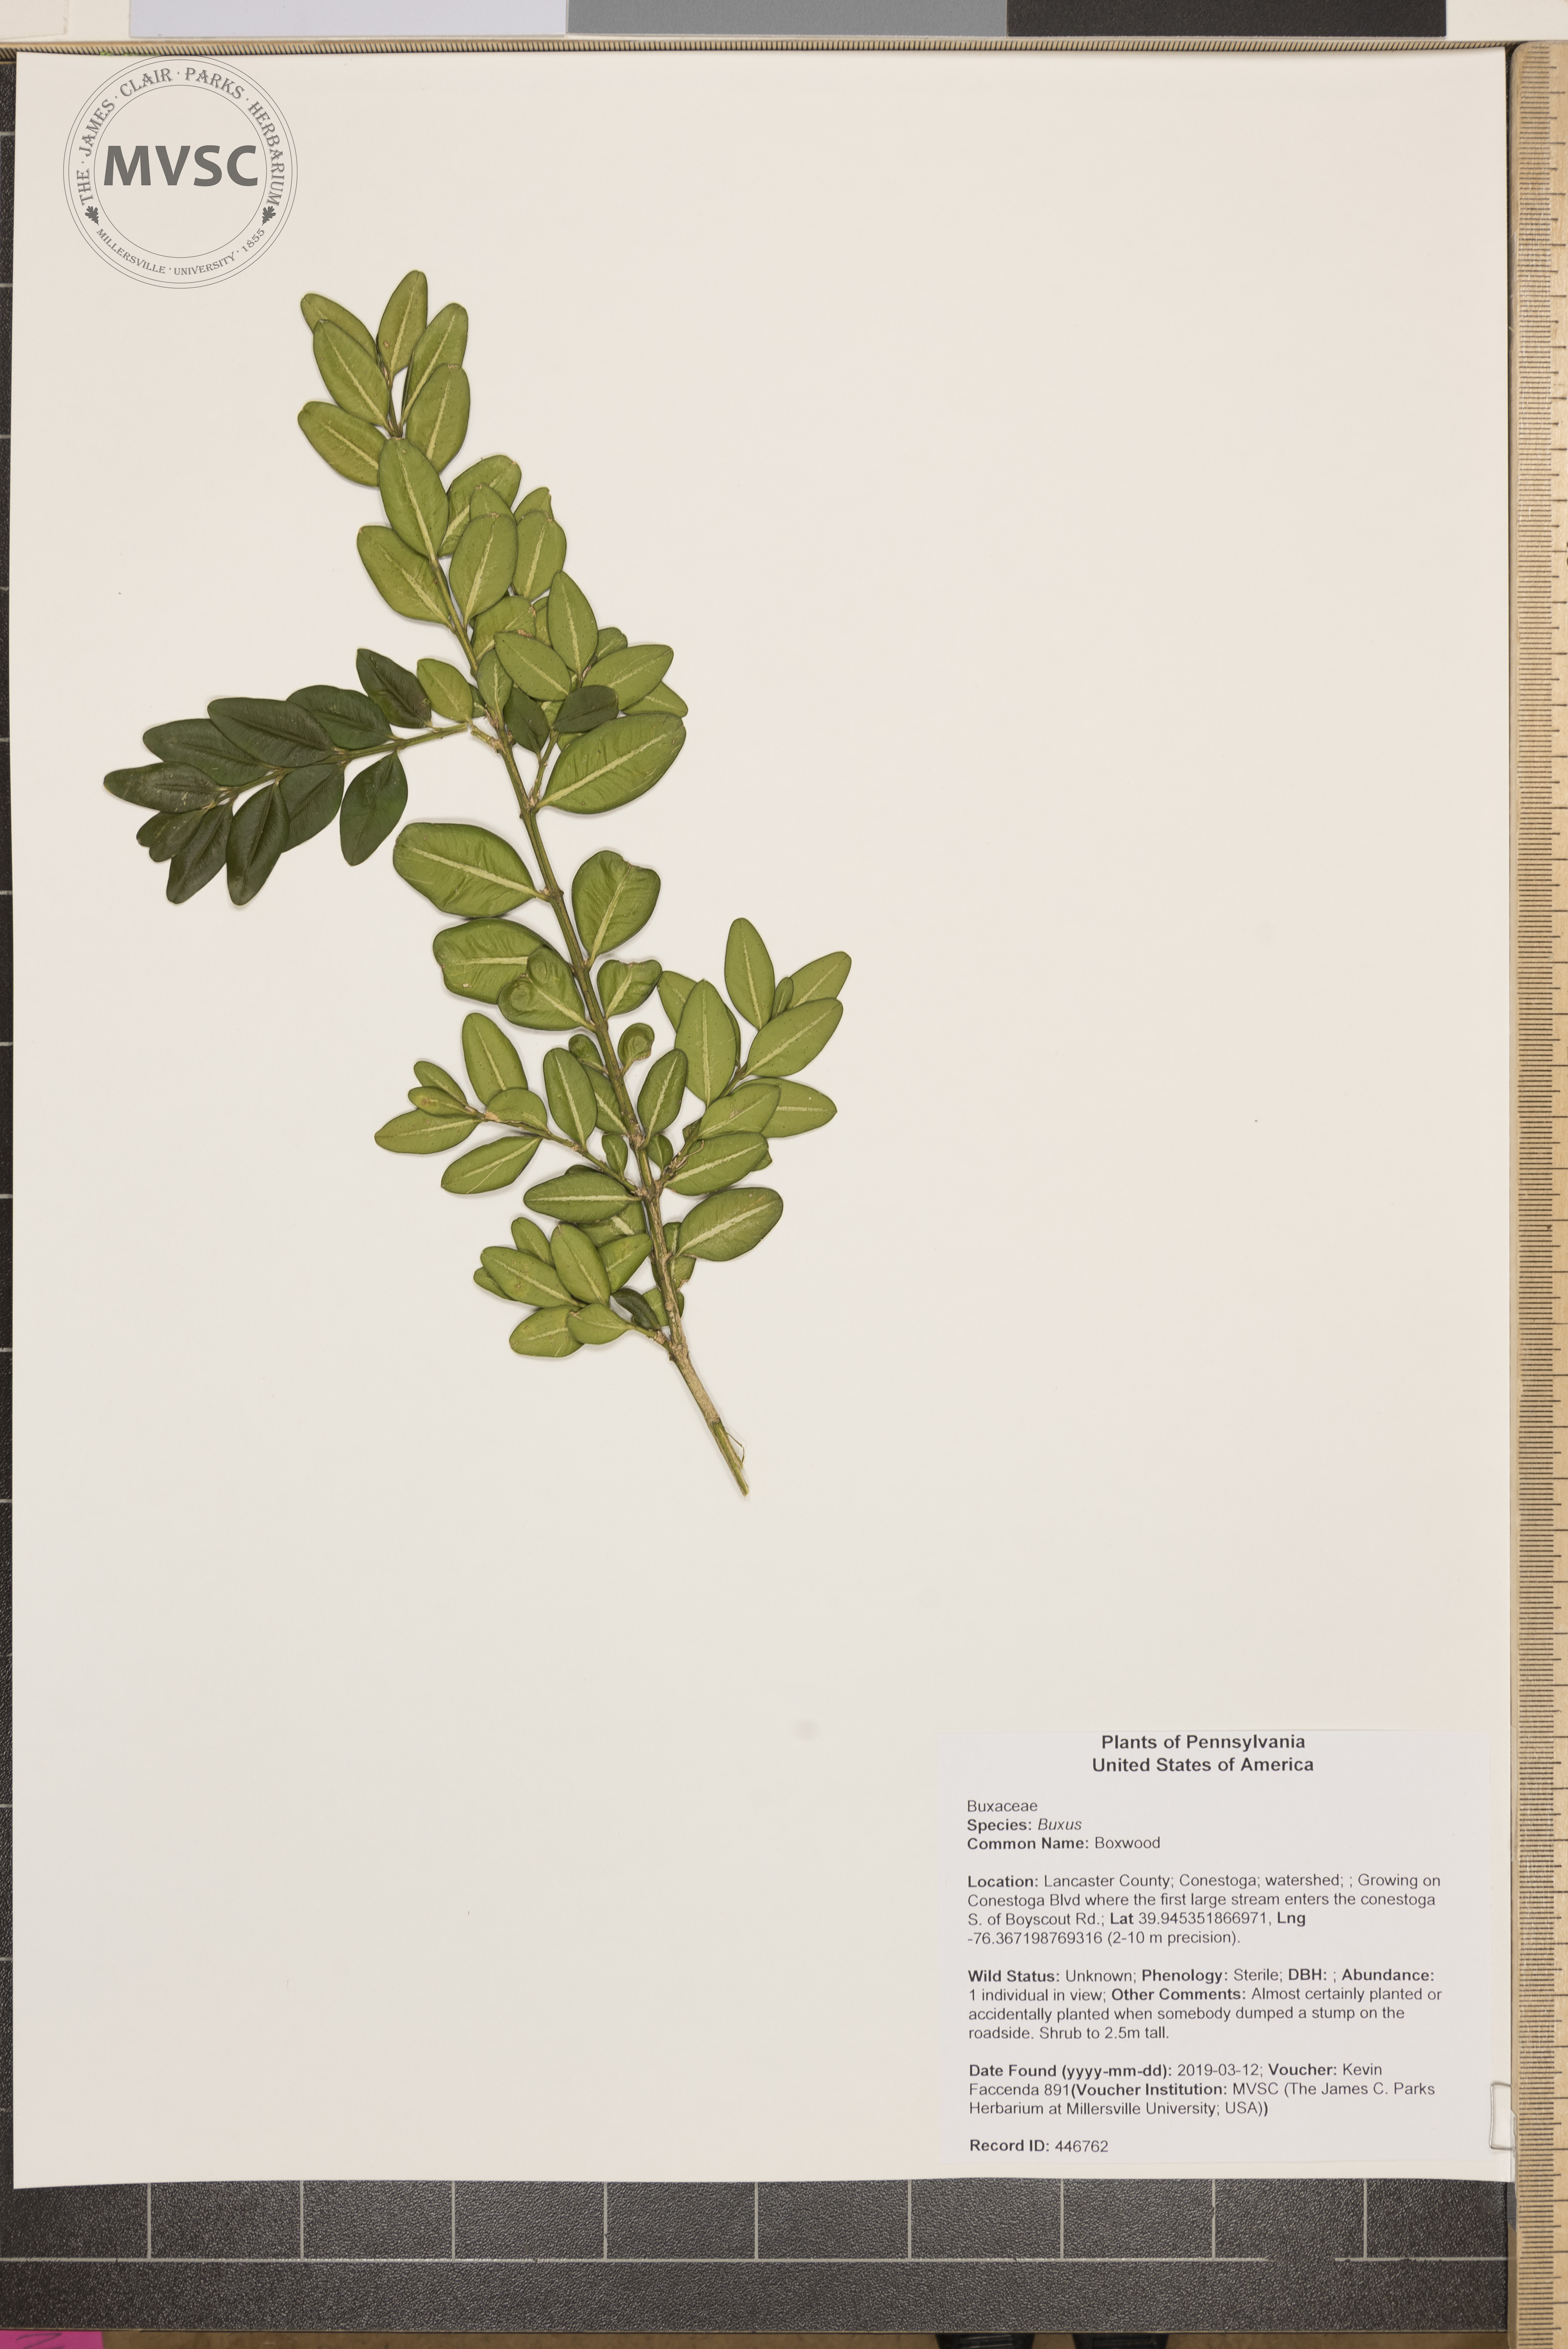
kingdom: Plantae
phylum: Tracheophyta
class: Magnoliopsida
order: Buxales
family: Buxaceae
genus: Buxus
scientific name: Buxus
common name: Boxwood
